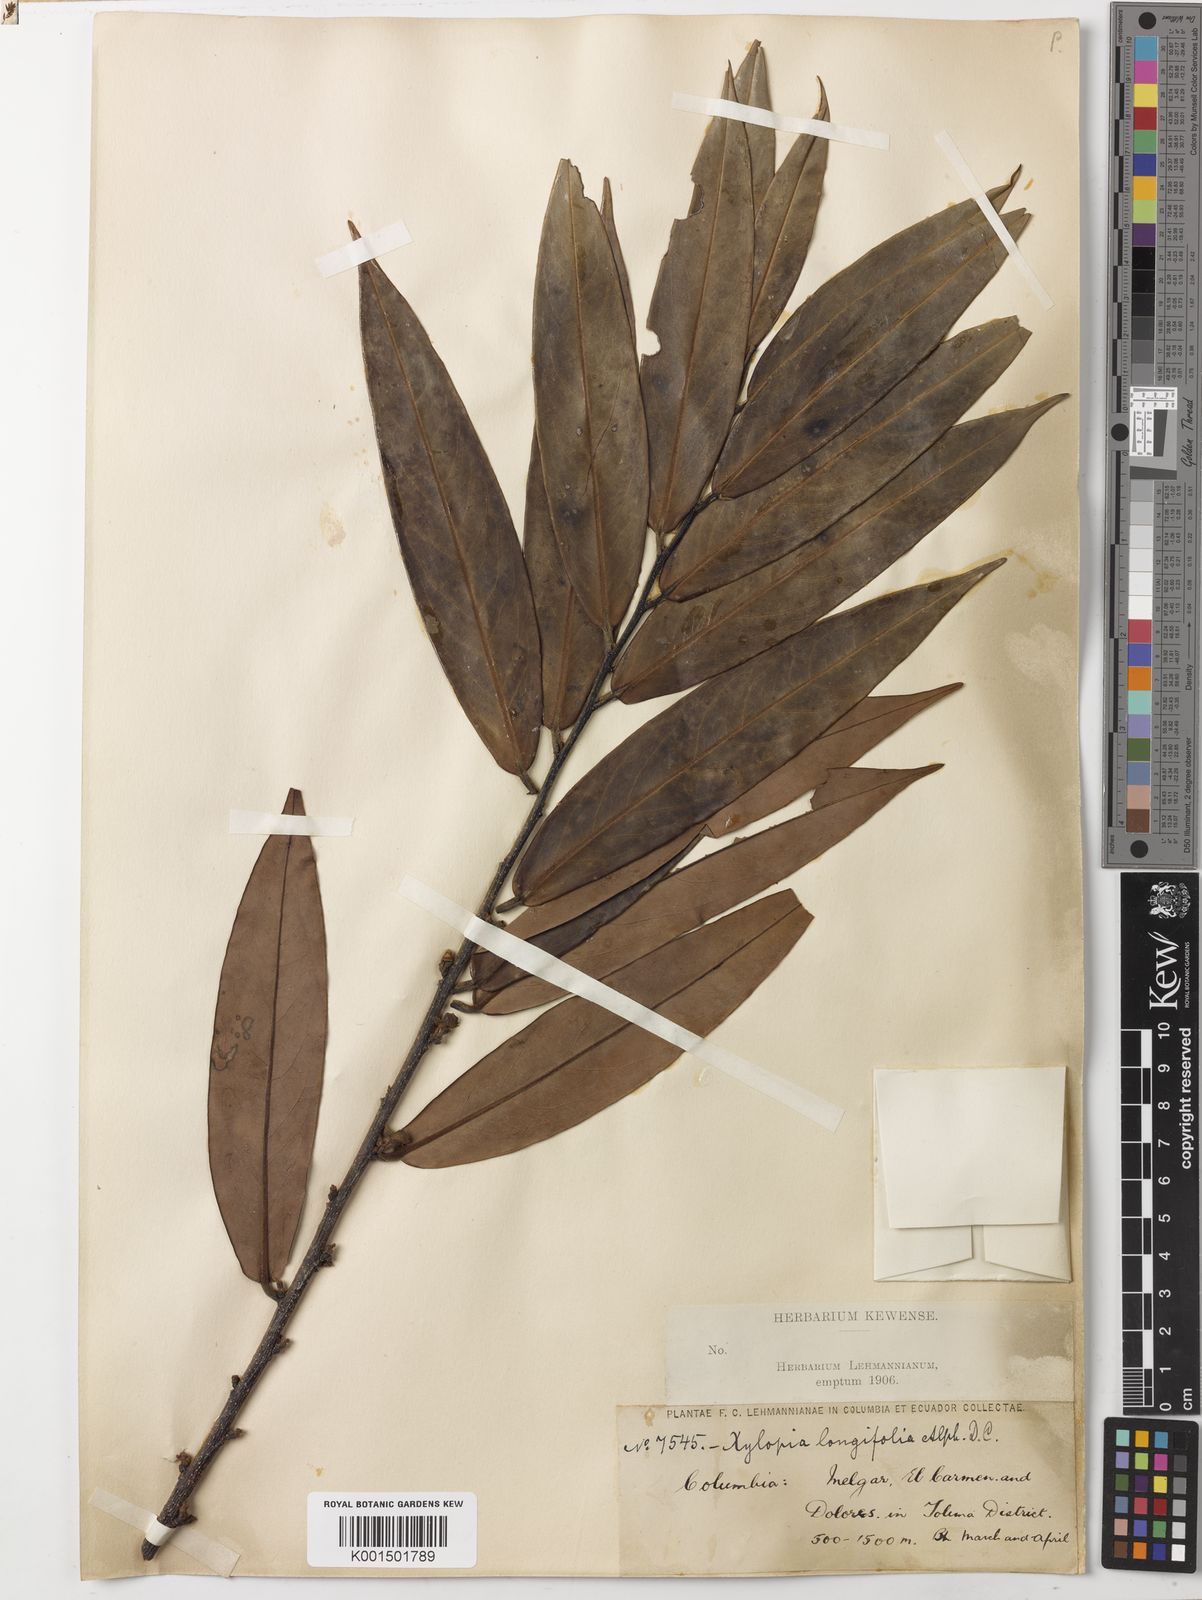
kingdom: Plantae
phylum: Tracheophyta
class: Magnoliopsida
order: Magnoliales
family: Annonaceae
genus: Xylopia
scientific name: Xylopia aromatica
